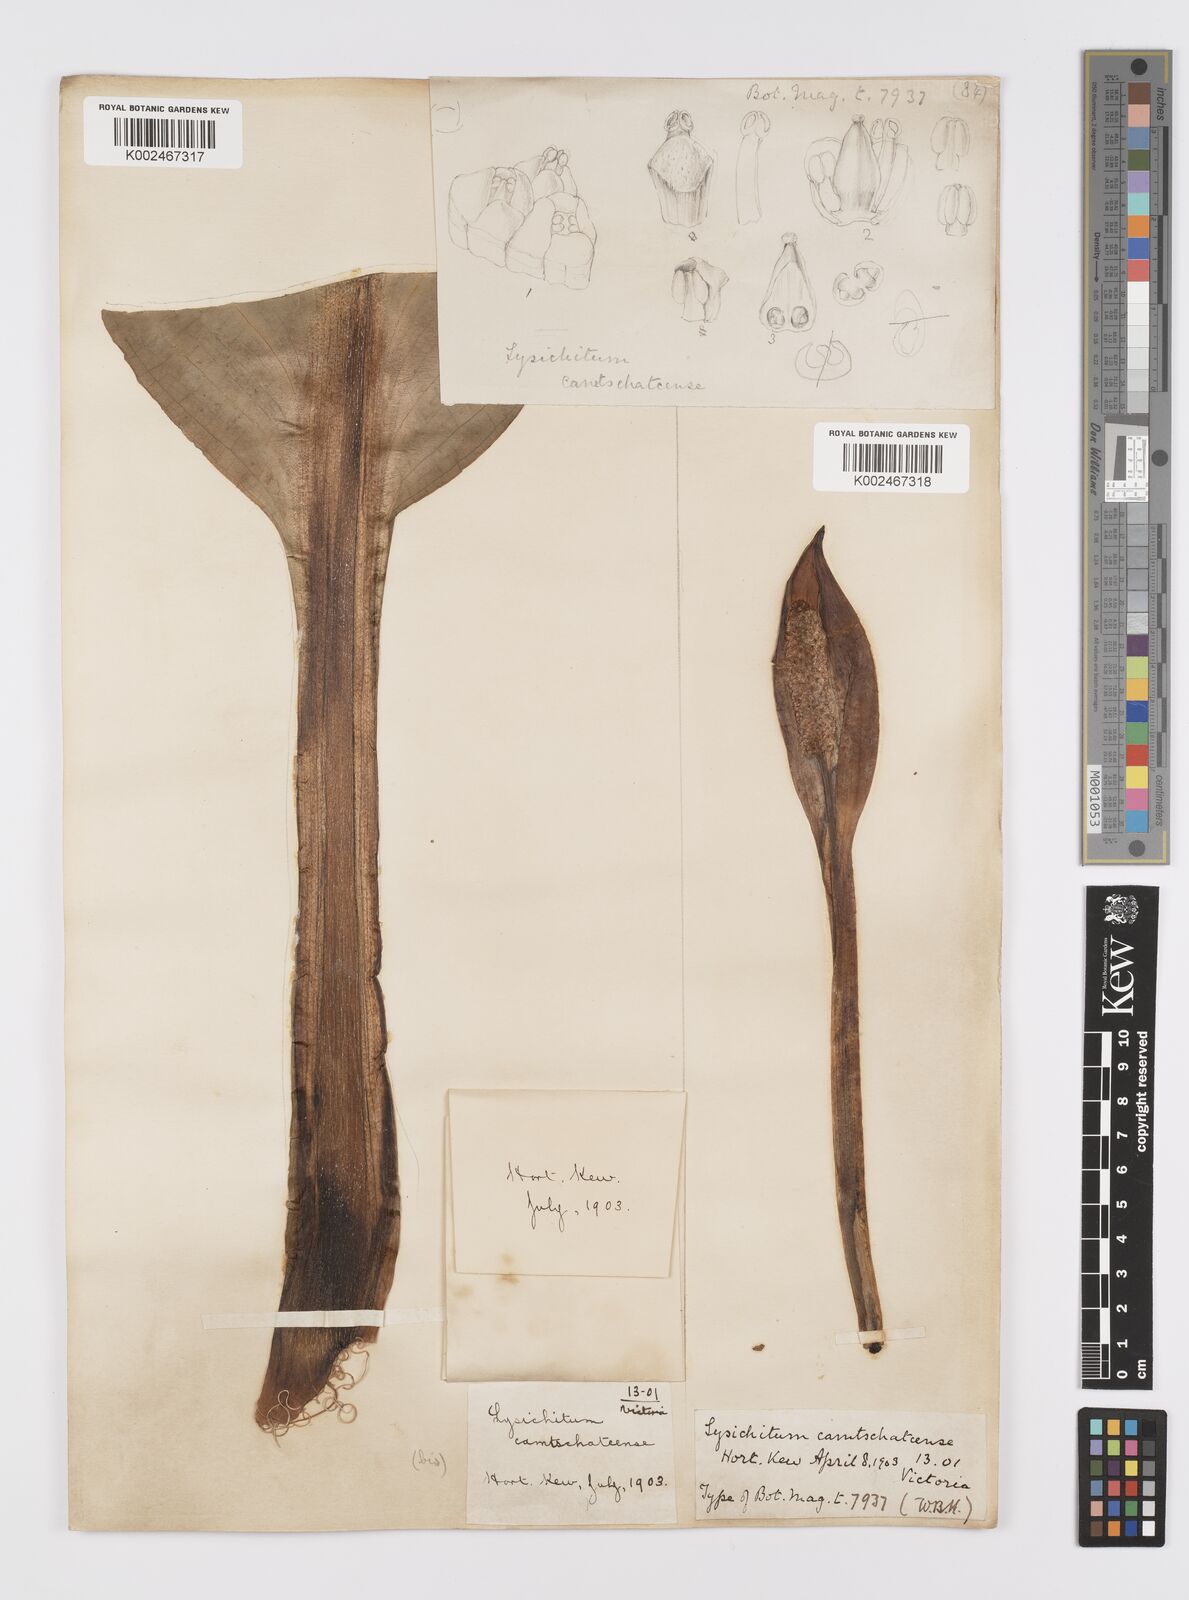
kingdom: Plantae
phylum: Tracheophyta
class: Liliopsida
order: Alismatales
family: Araceae
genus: Lysichiton
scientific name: Lysichiton americanus
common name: American skunk cabbage
